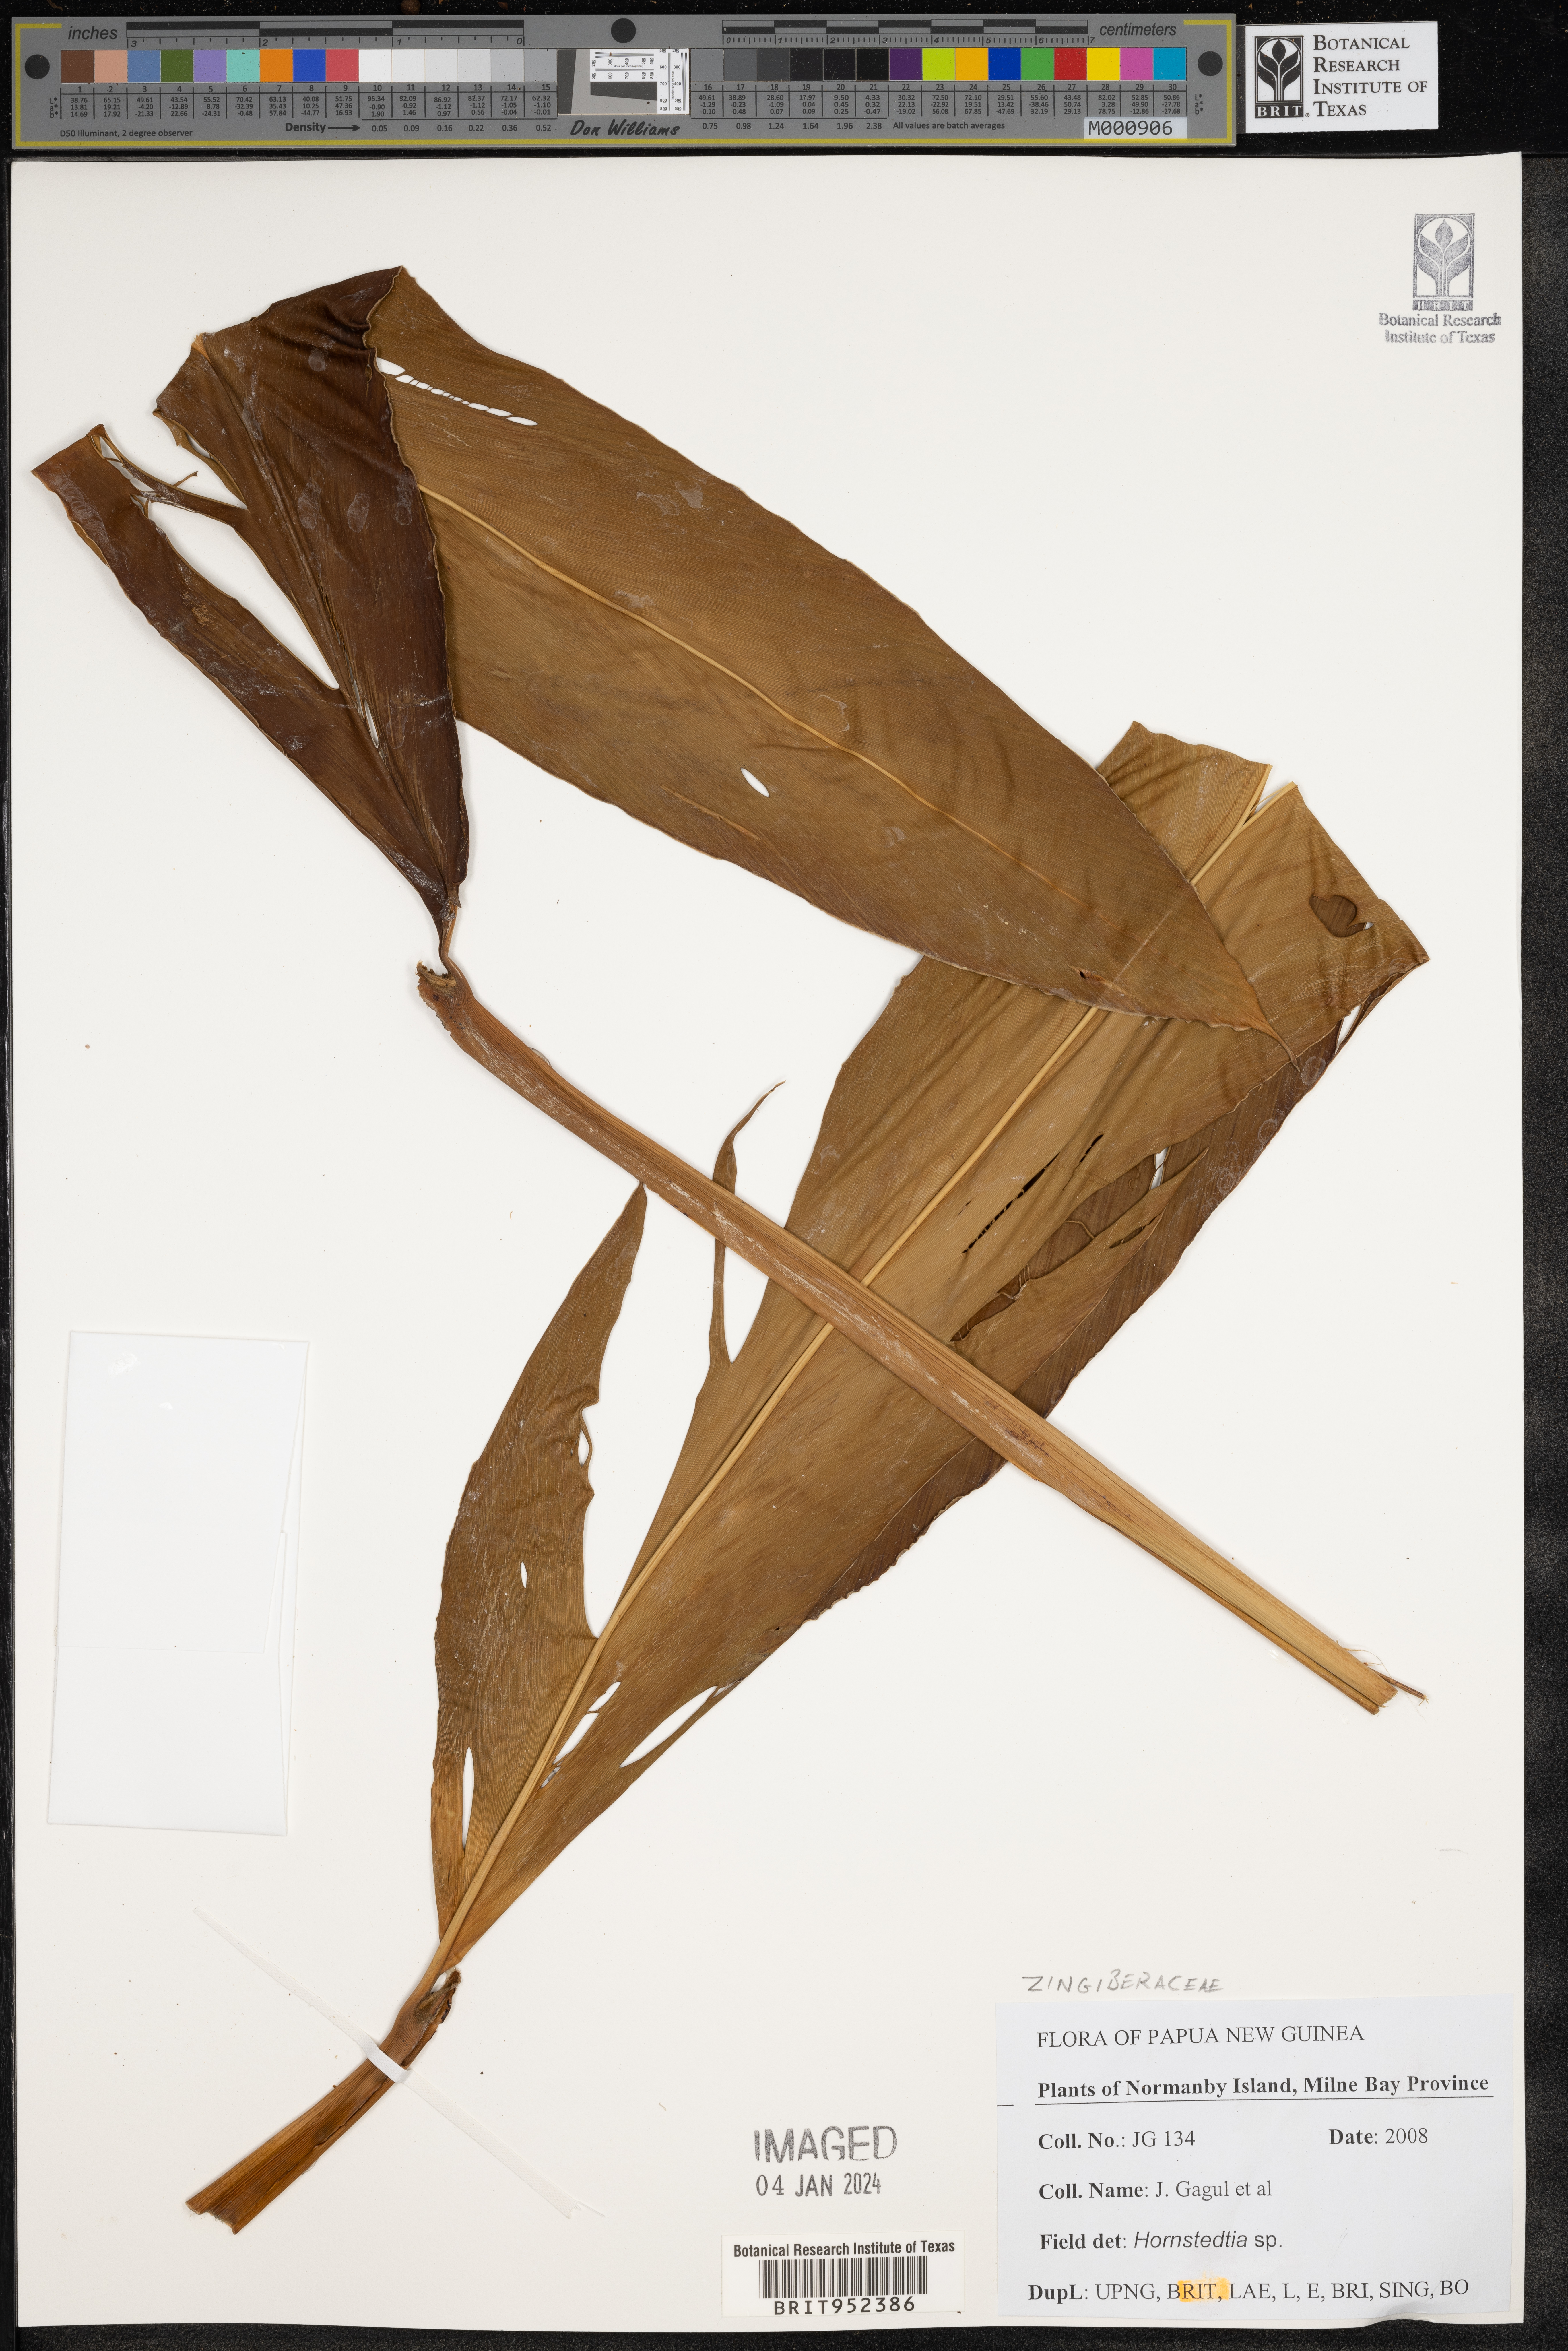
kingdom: Plantae
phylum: Tracheophyta
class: Liliopsida
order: Zingiberales
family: Zingiberaceae
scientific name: Zingiberaceae
